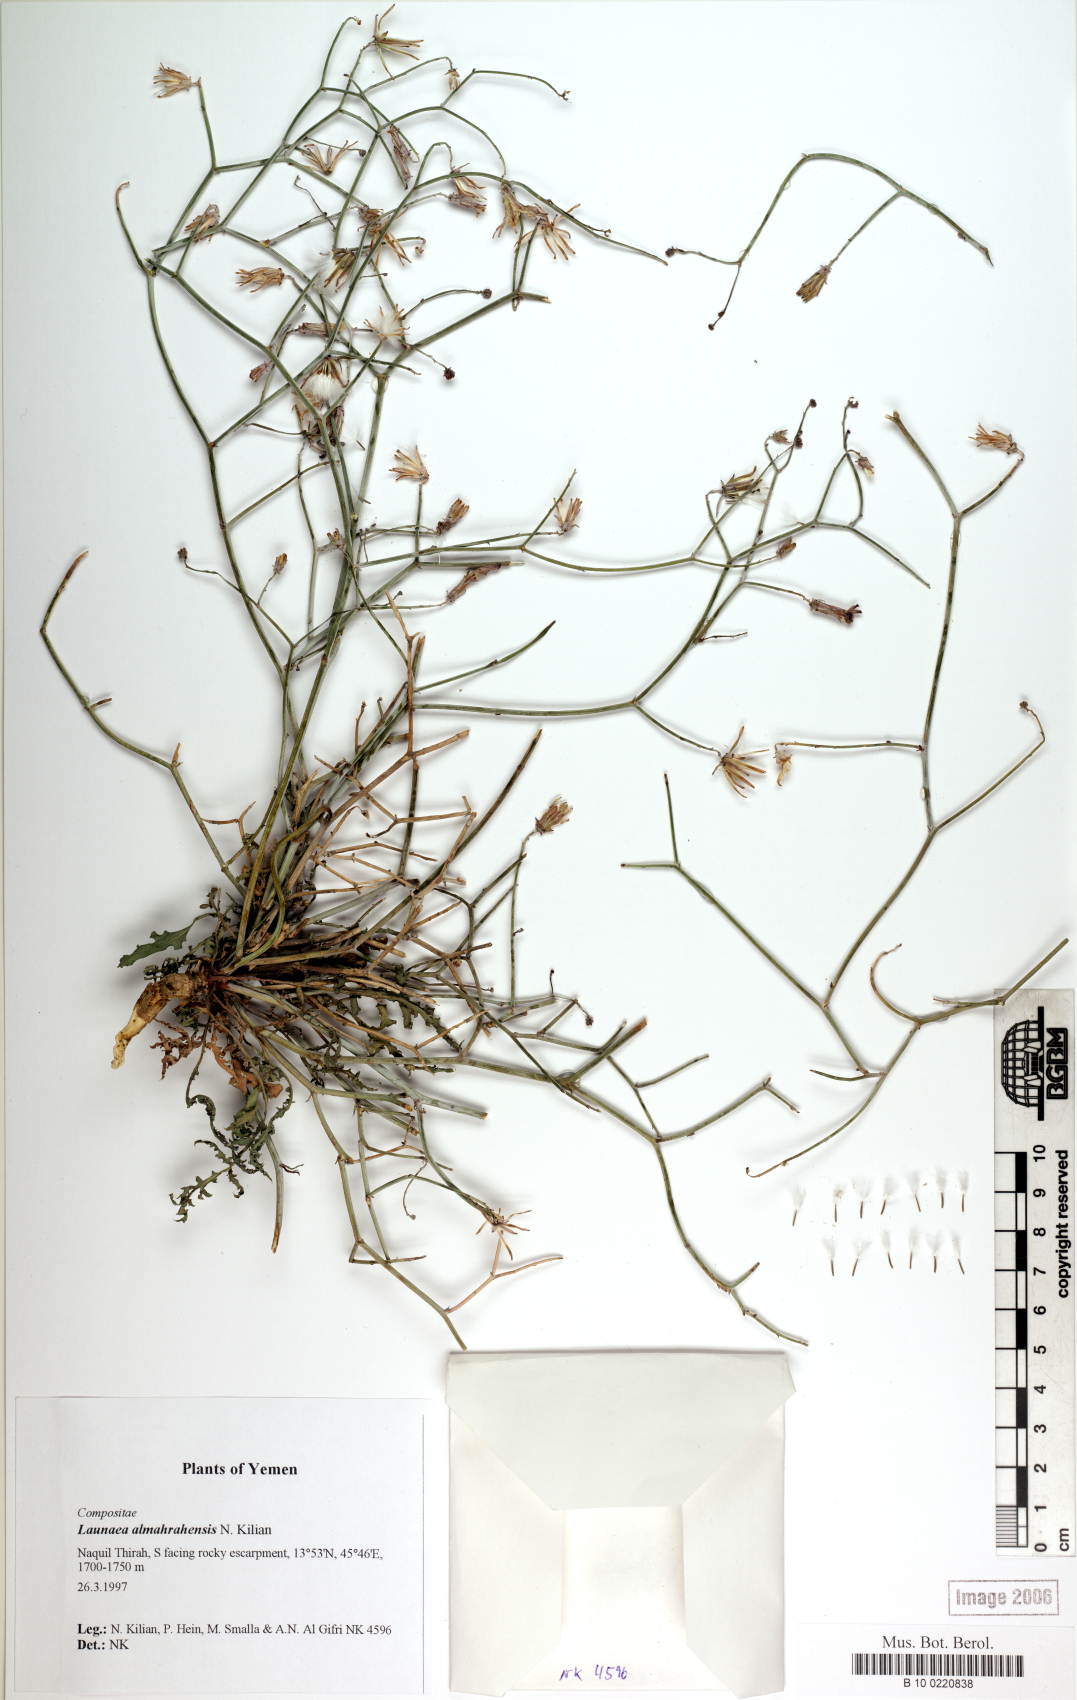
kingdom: Plantae
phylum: Tracheophyta
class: Magnoliopsida
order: Asterales
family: Asteraceae
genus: Launaea
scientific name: Launaea almahrahensis
